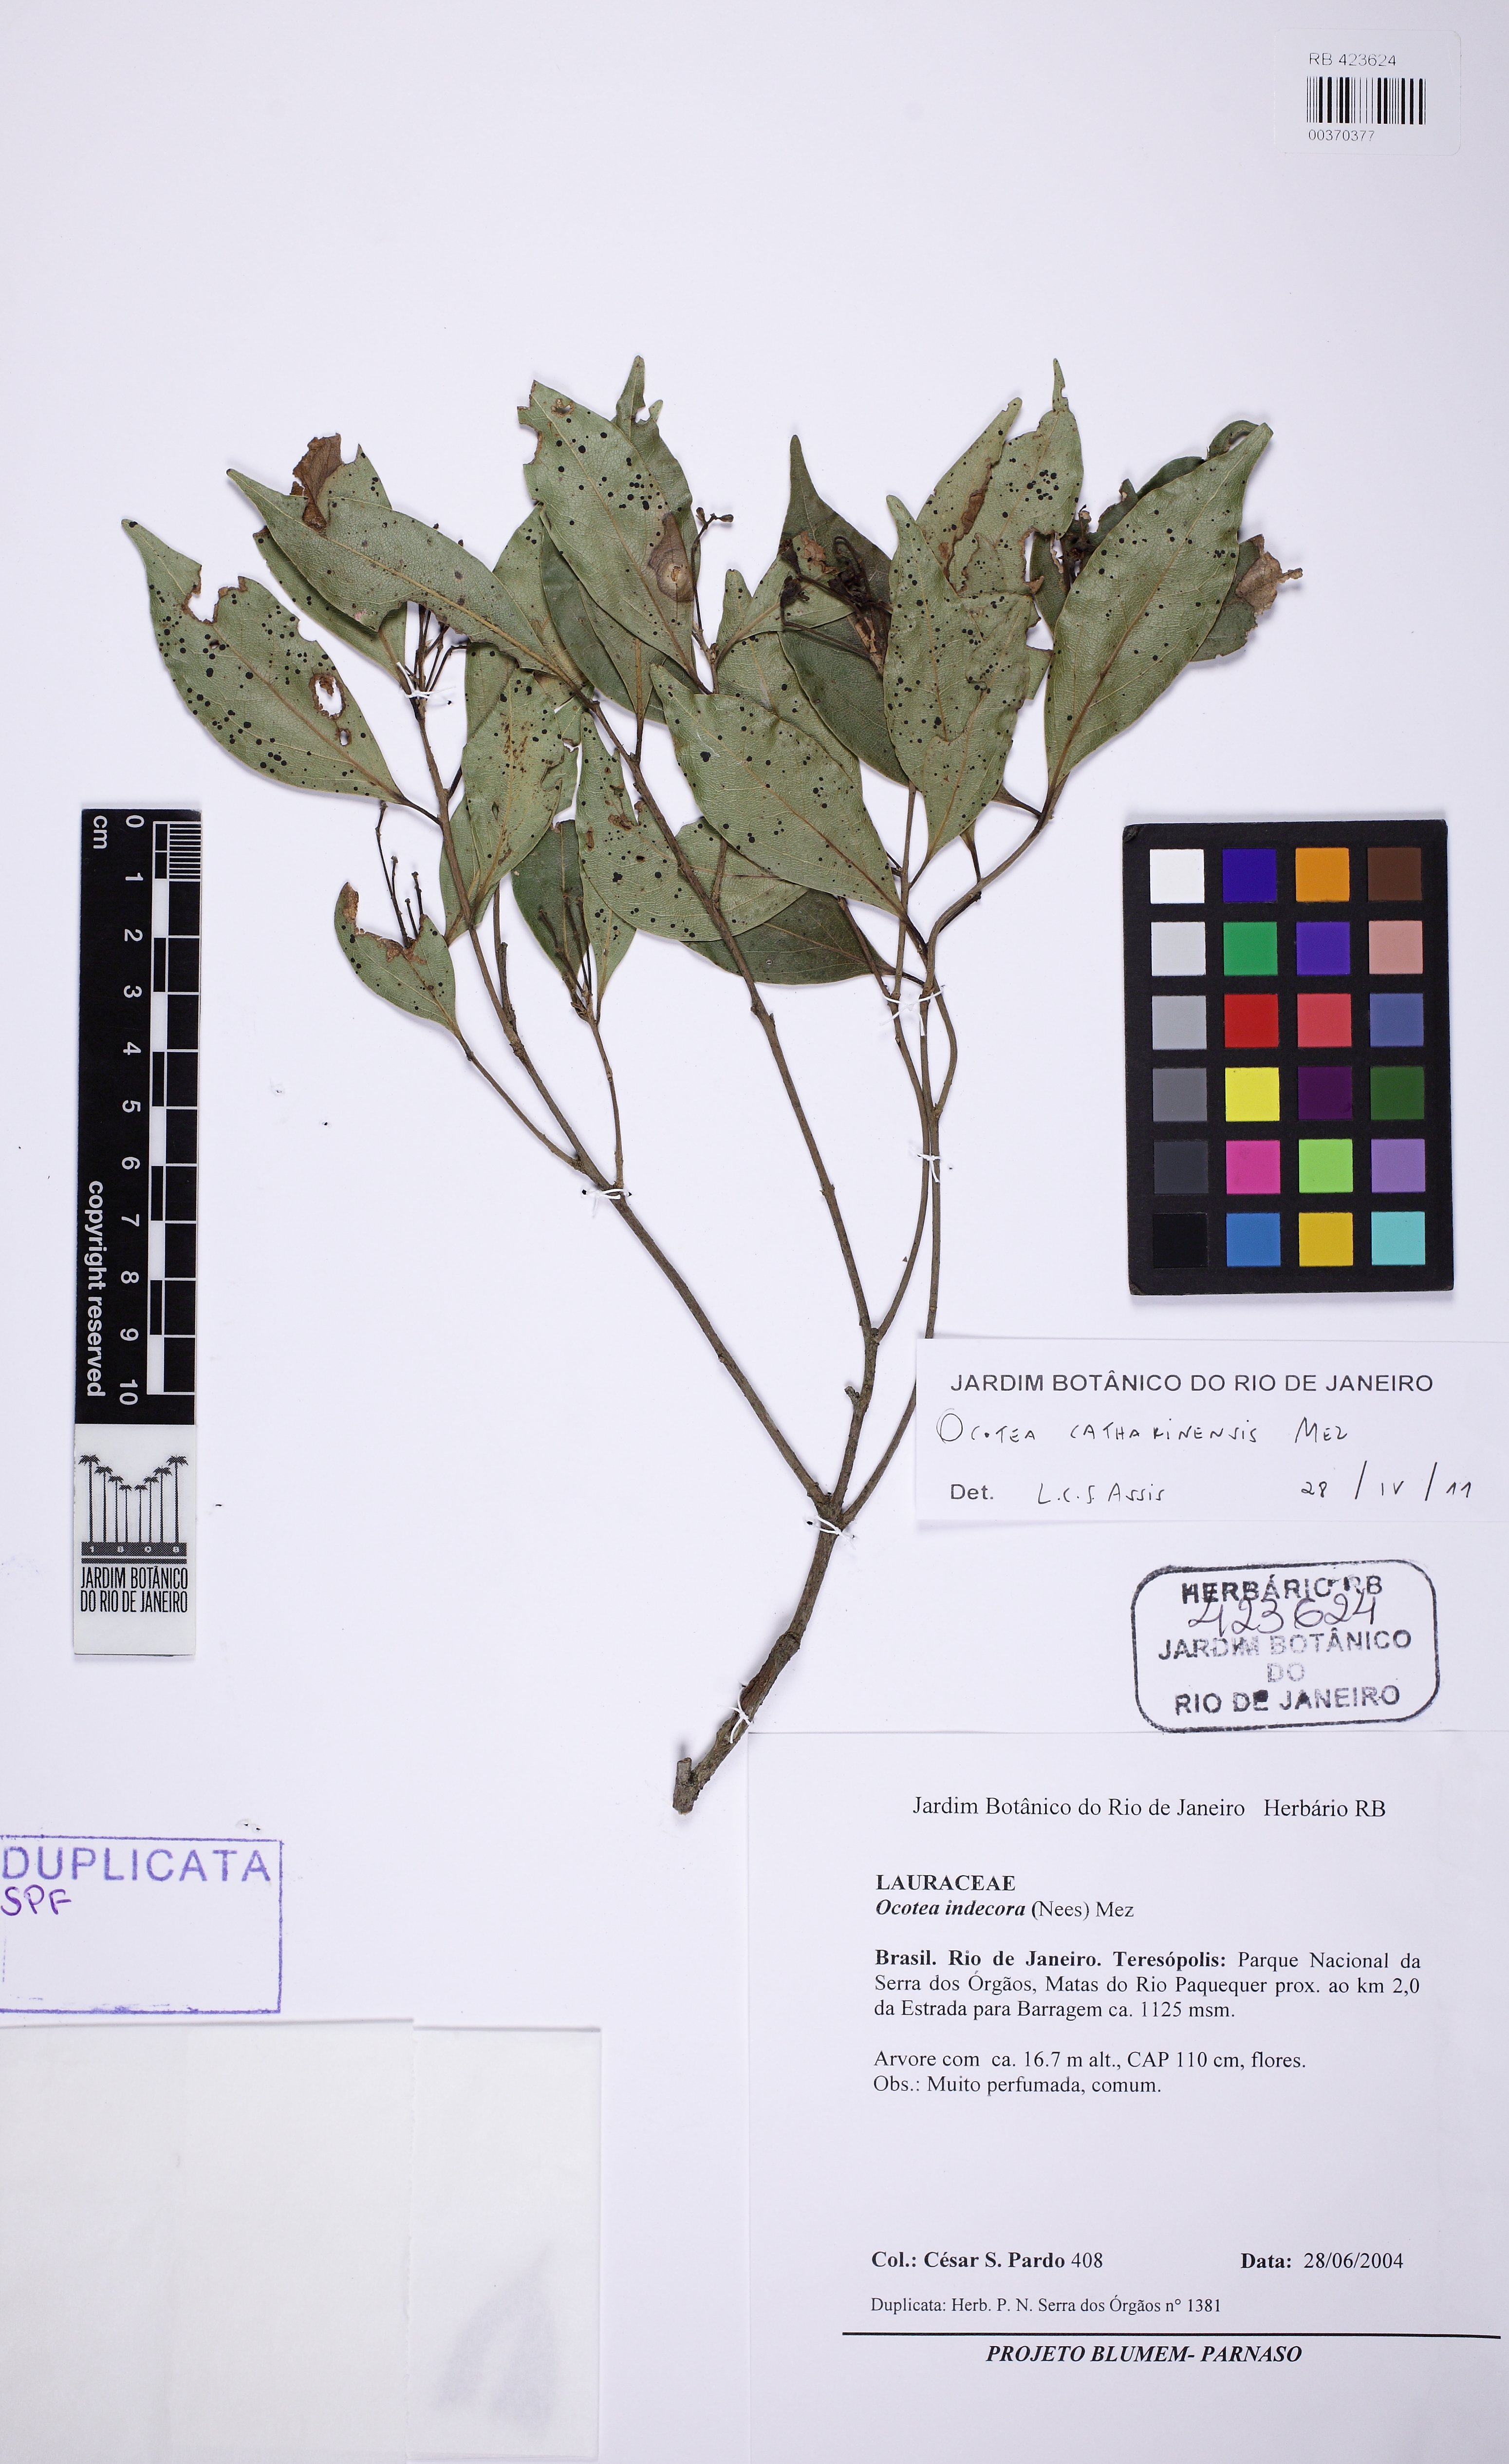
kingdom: Plantae
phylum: Tracheophyta
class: Magnoliopsida
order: Laurales
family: Lauraceae
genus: Ocotea
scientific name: Ocotea catharinensis
